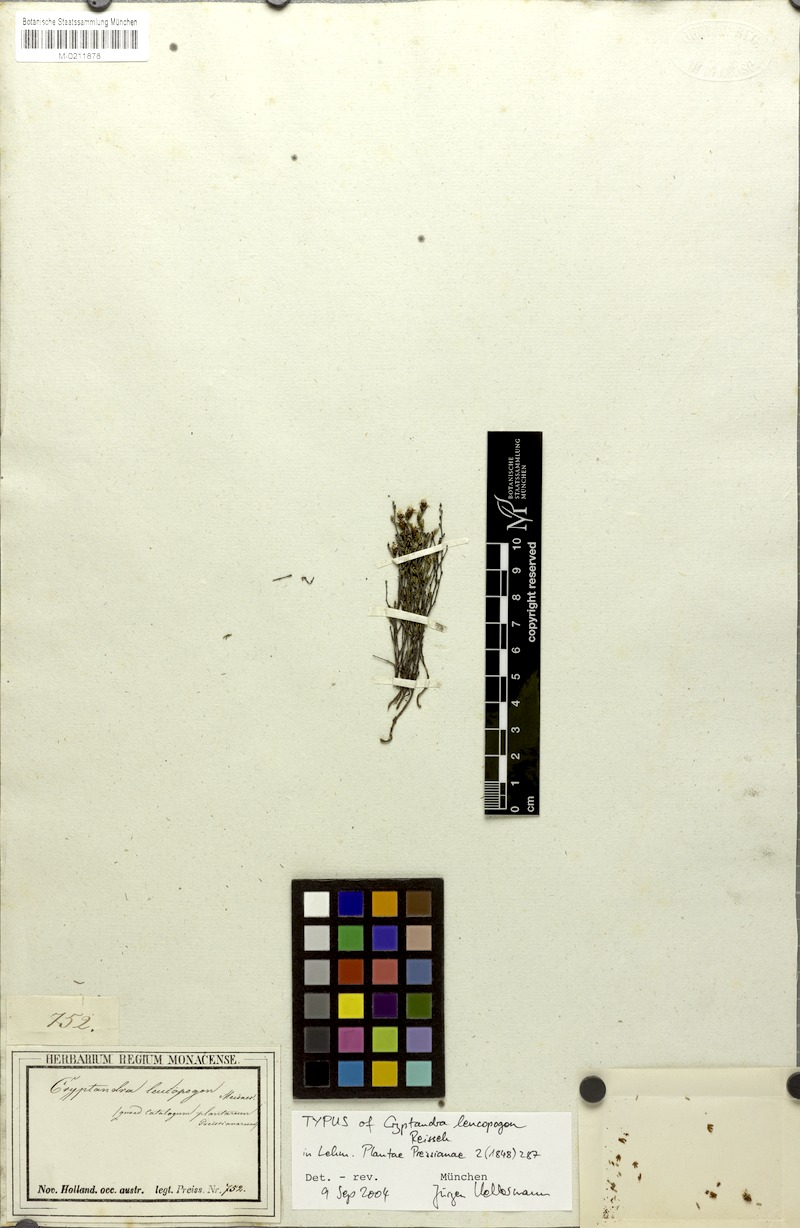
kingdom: Plantae
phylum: Tracheophyta
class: Magnoliopsida
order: Rosales
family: Rhamnaceae
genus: Cryptandra
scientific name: Cryptandra leucopogon
